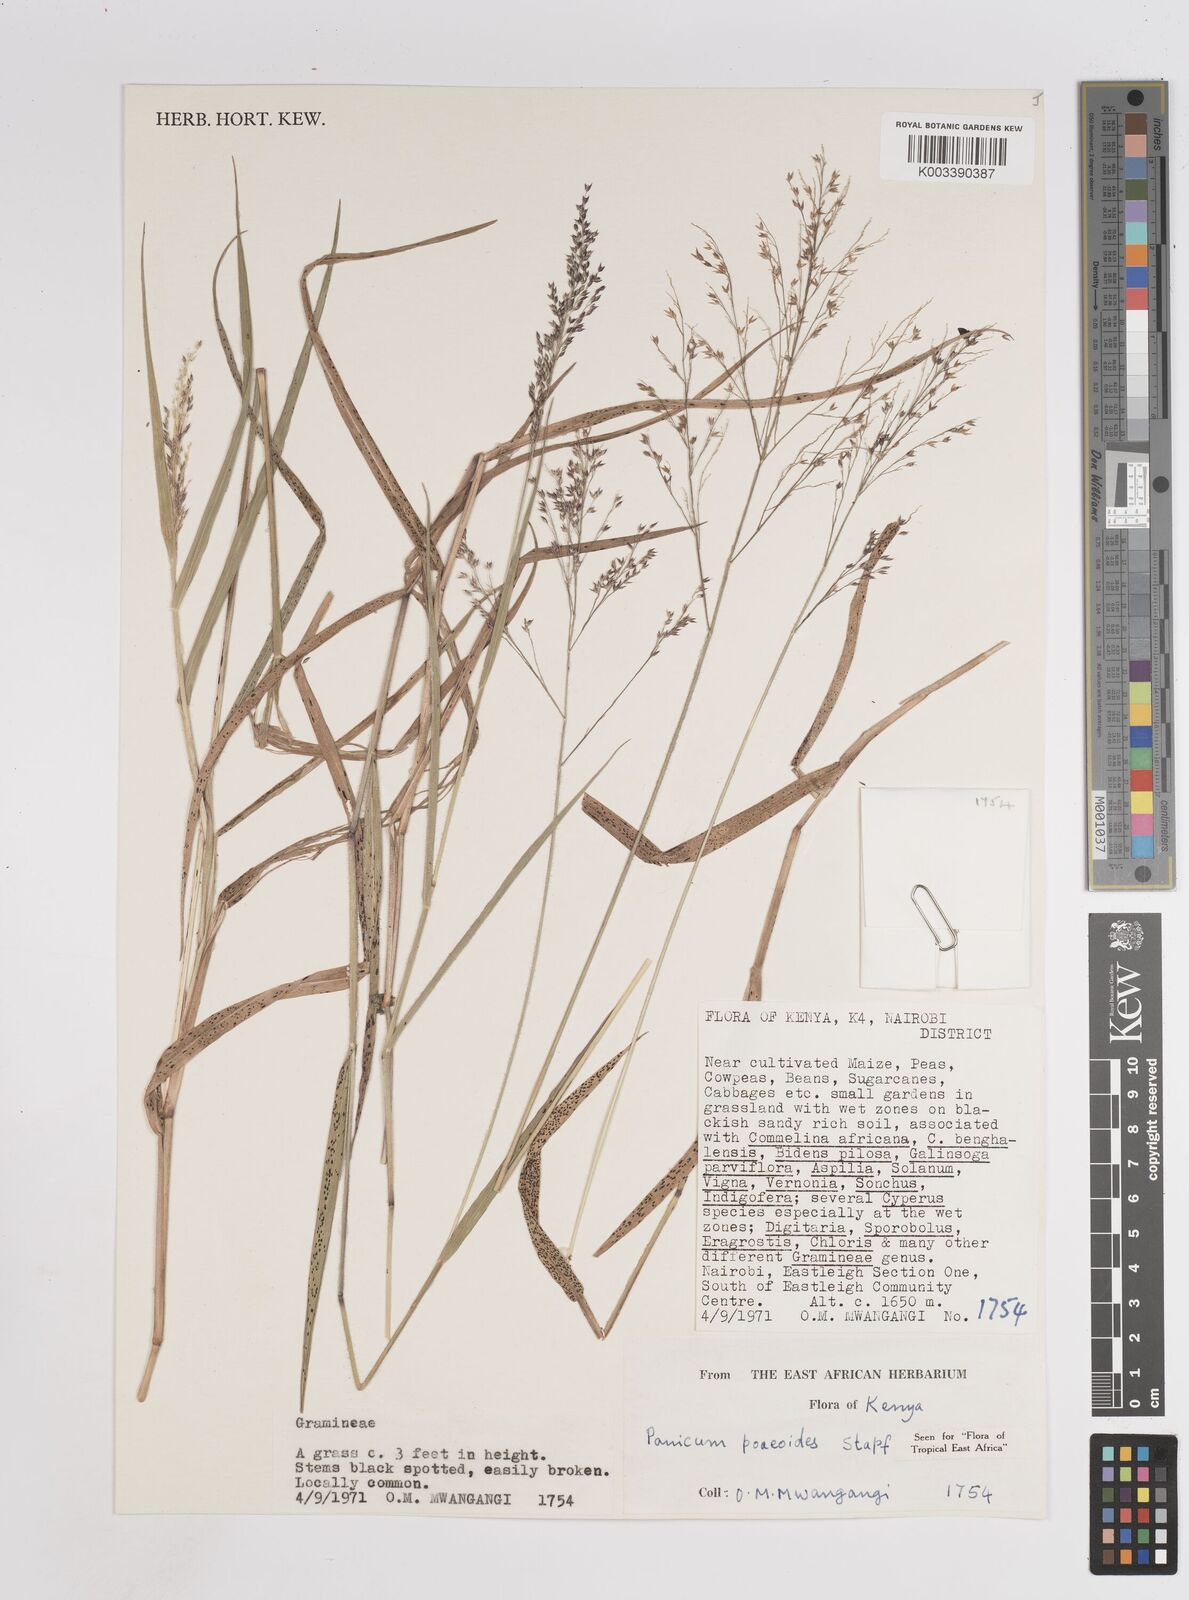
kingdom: Plantae
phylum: Tracheophyta
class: Liliopsida
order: Poales
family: Poaceae
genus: Panicum
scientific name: Panicum
